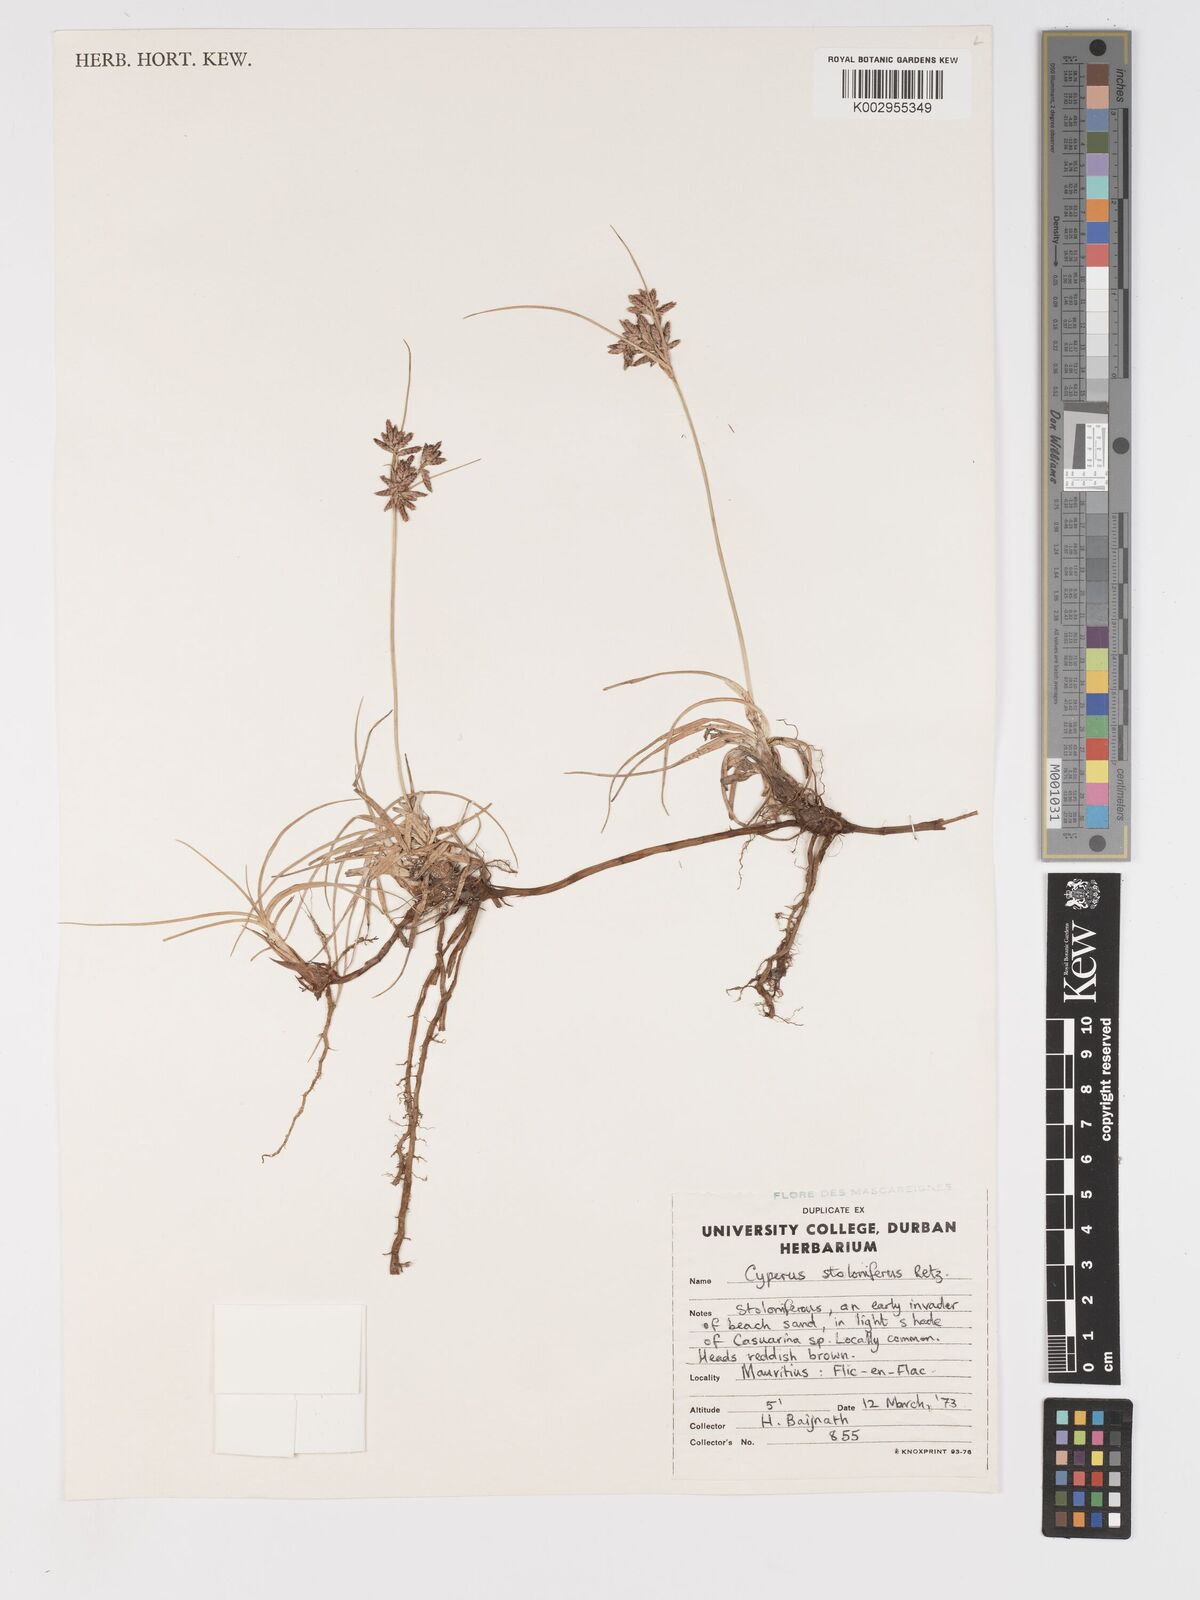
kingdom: Plantae
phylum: Tracheophyta
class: Liliopsida
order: Poales
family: Cyperaceae
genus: Cyperus
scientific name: Cyperus bulbosus
